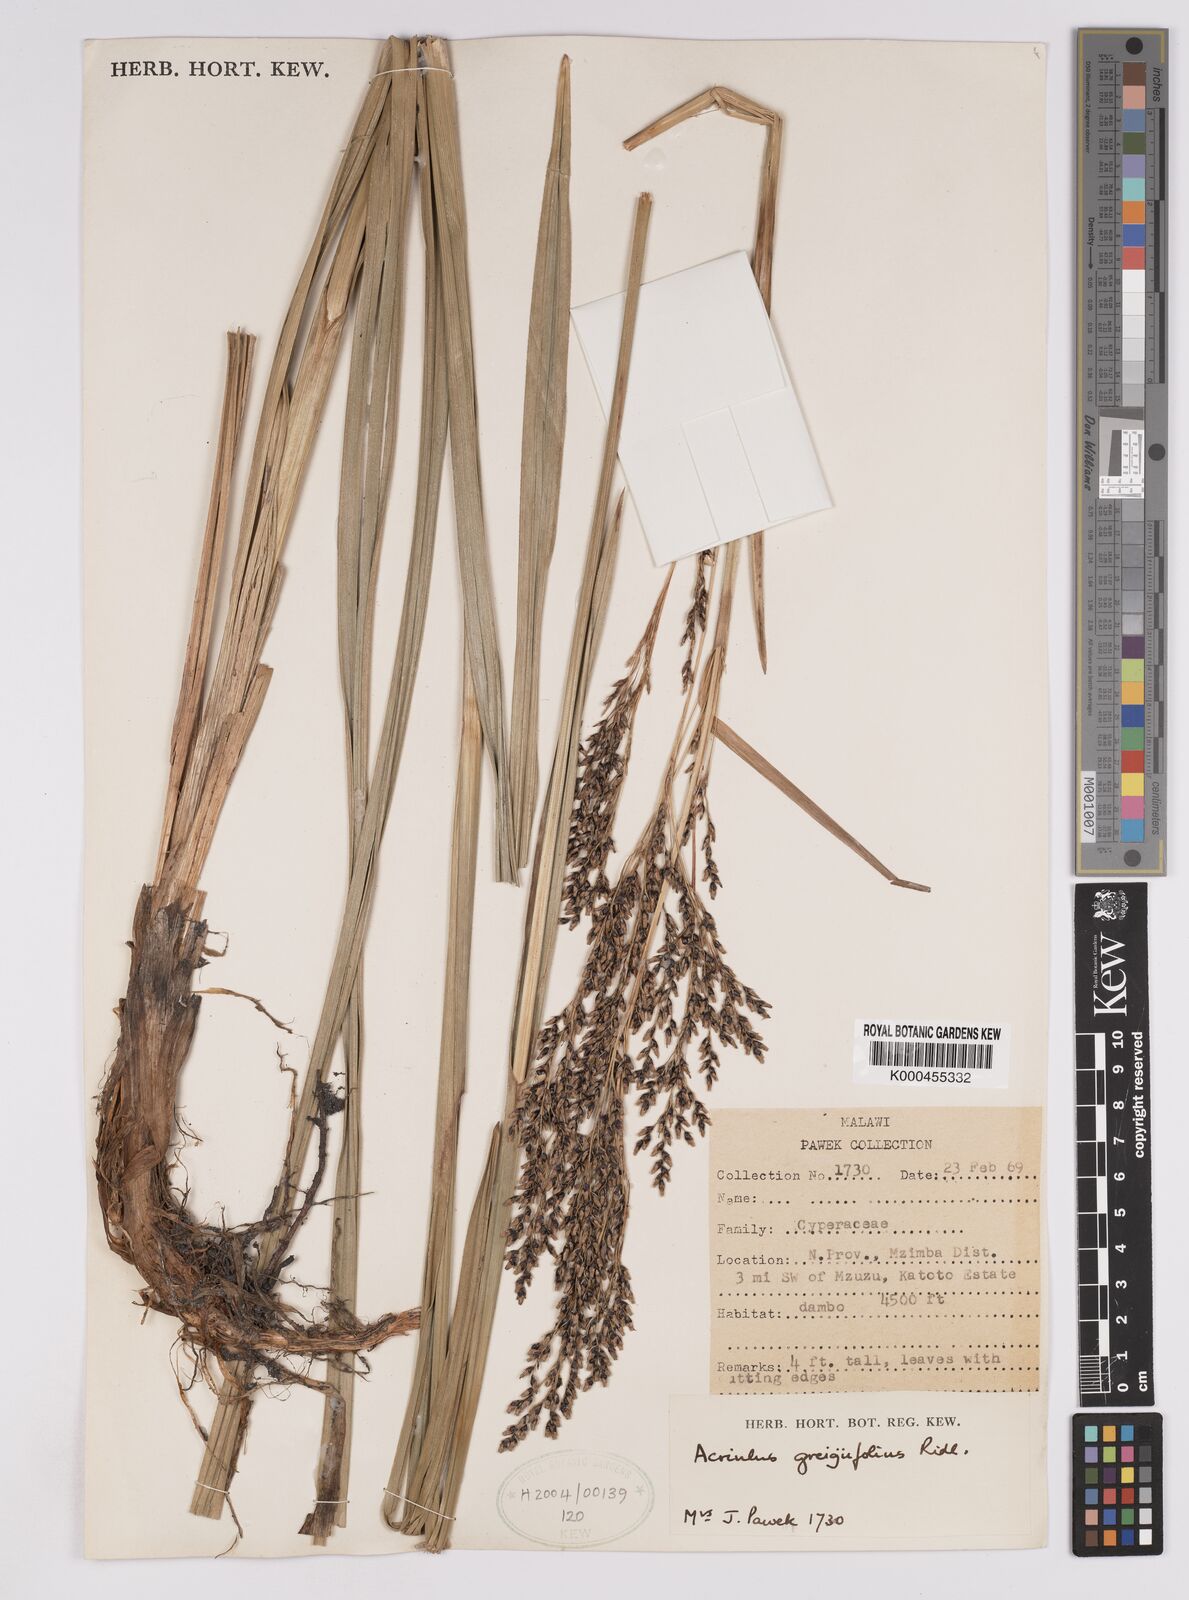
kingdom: Plantae
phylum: Tracheophyta
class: Liliopsida
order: Poales
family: Cyperaceae
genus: Scleria
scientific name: Scleria greigiifolia
